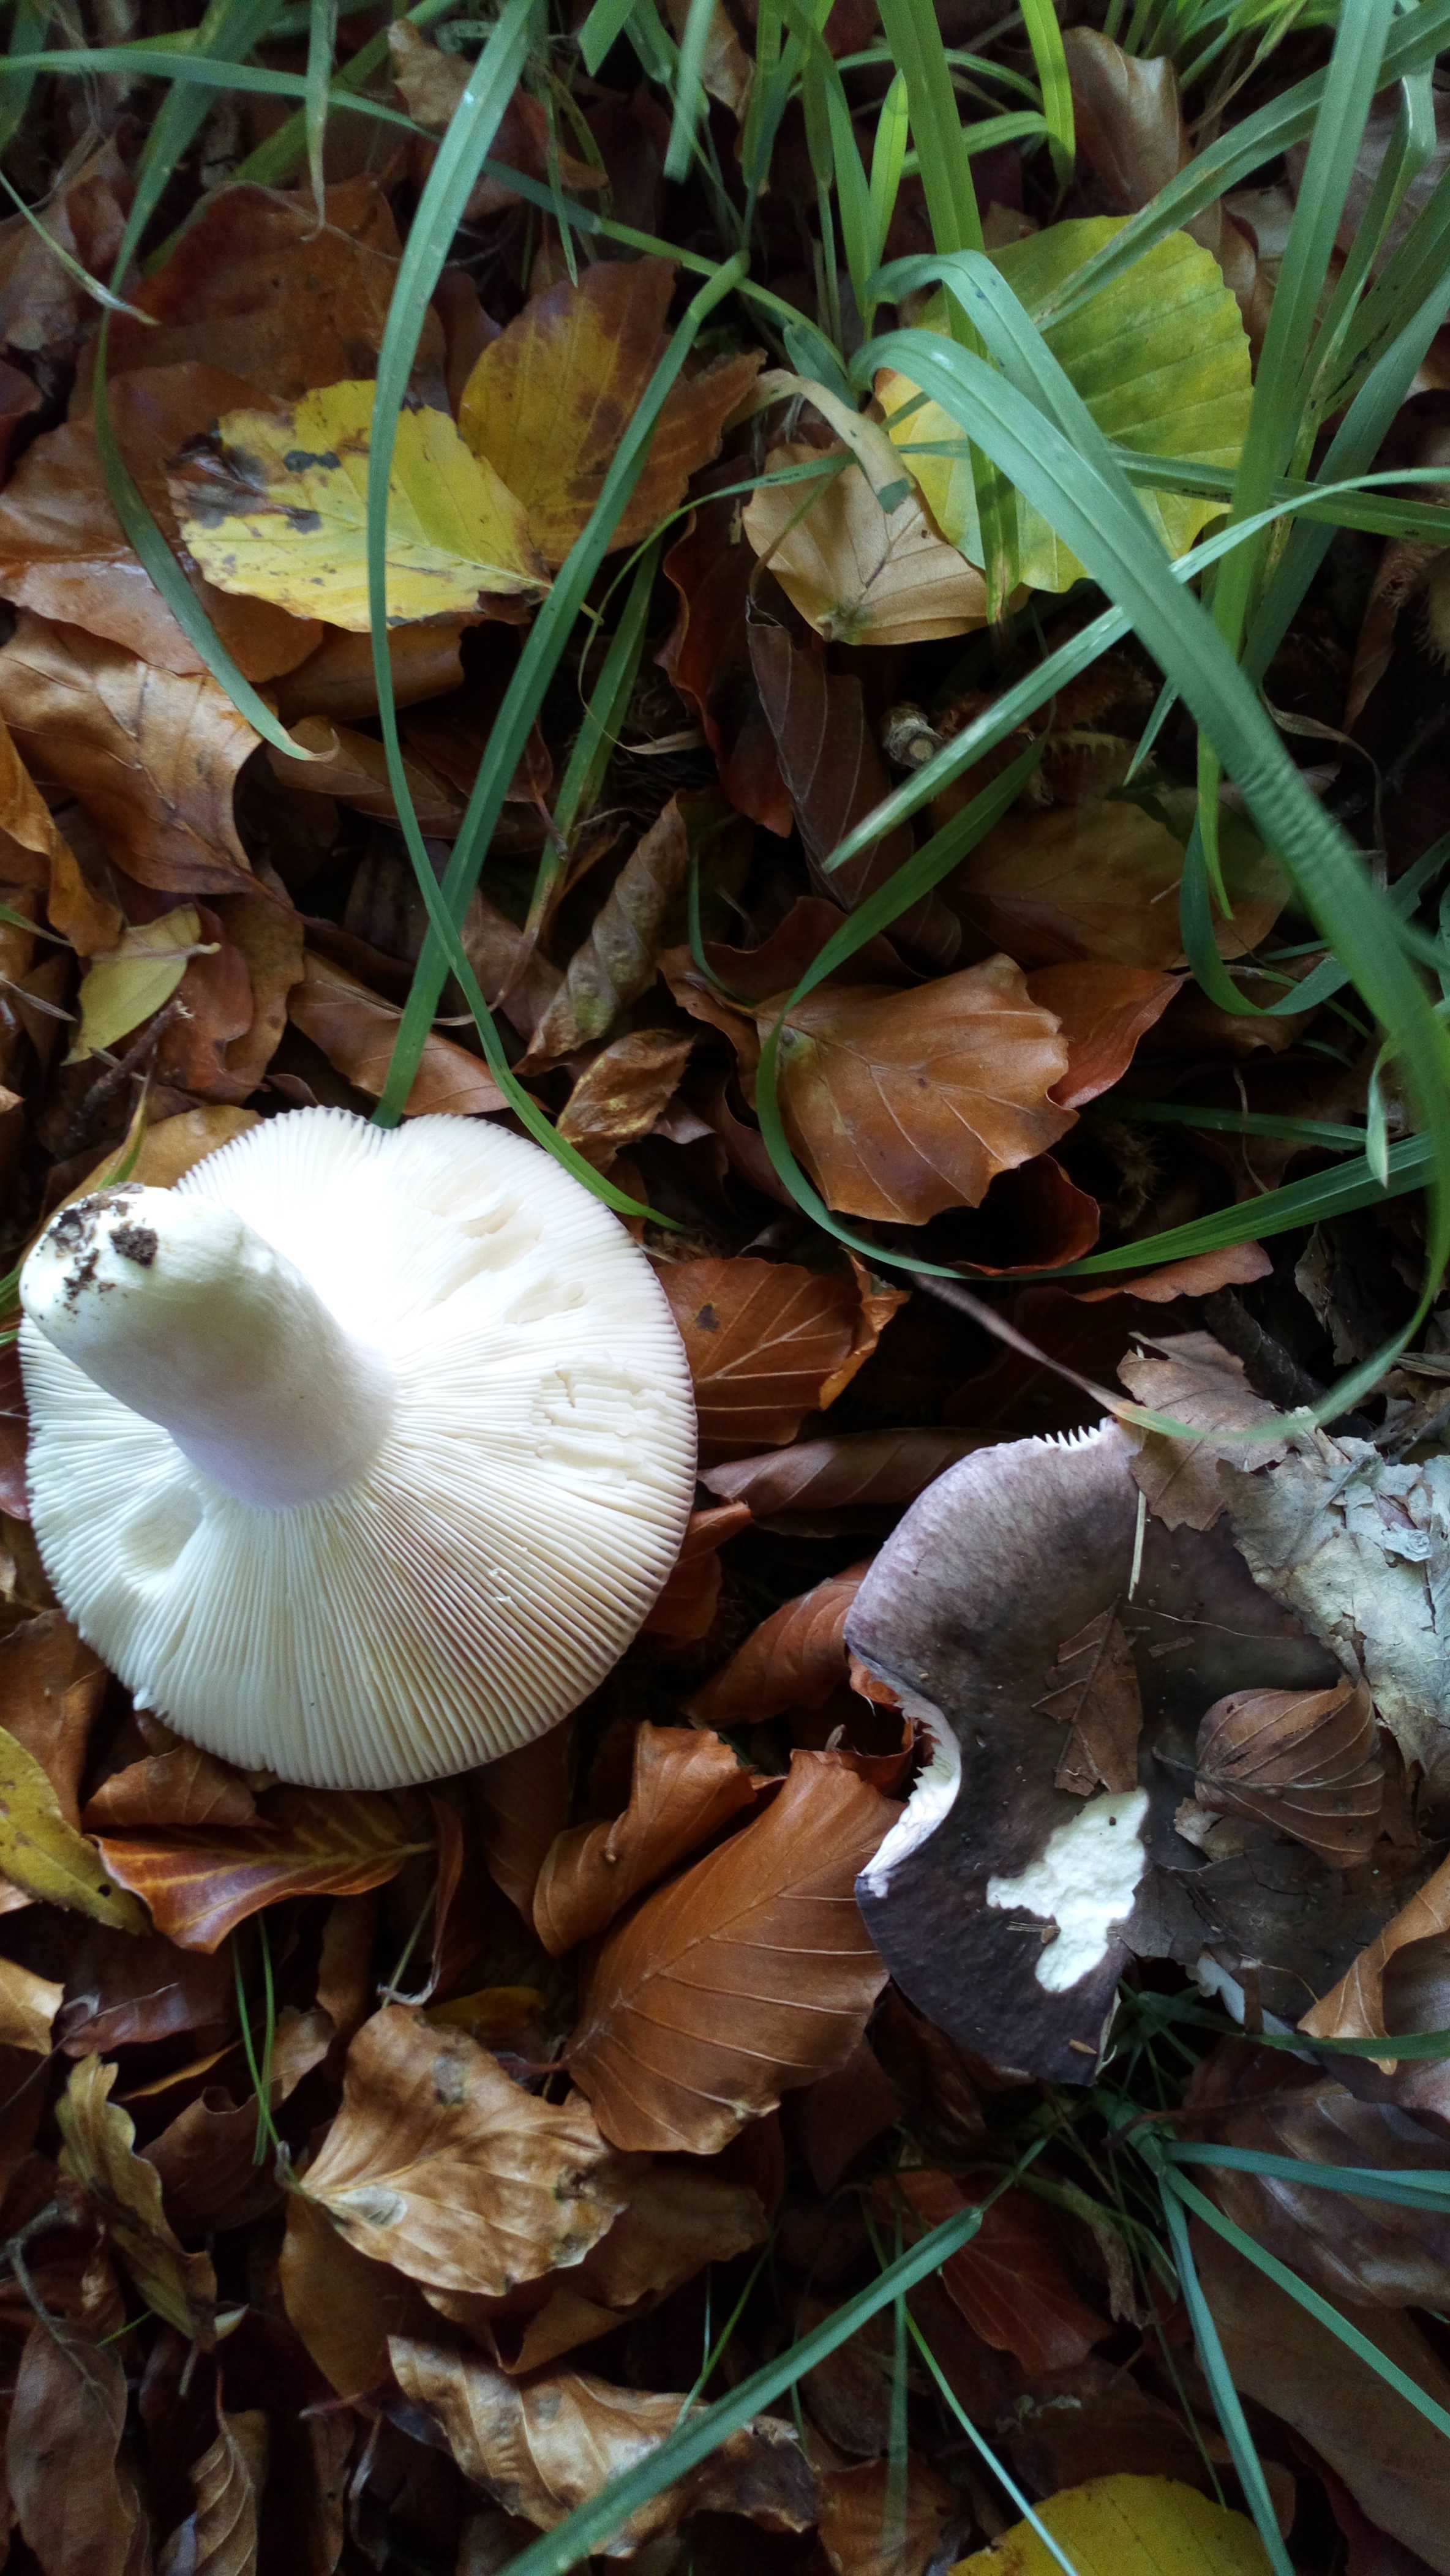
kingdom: Fungi
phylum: Basidiomycota
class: Agaricomycetes
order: Russulales
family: Russulaceae
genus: Russula
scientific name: Russula
